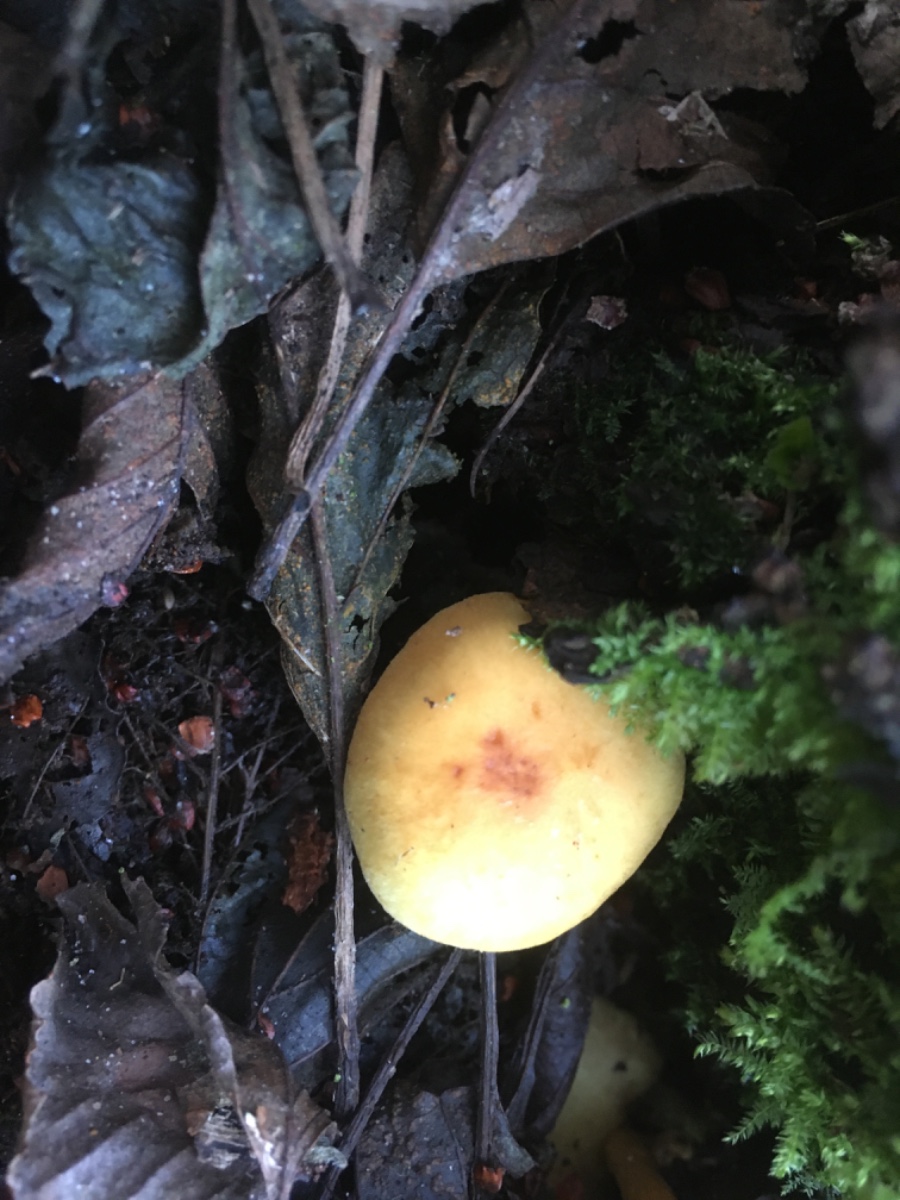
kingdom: Fungi
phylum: Basidiomycota
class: Agaricomycetes
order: Agaricales
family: Strophariaceae
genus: Hypholoma
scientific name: Hypholoma fasciculare
